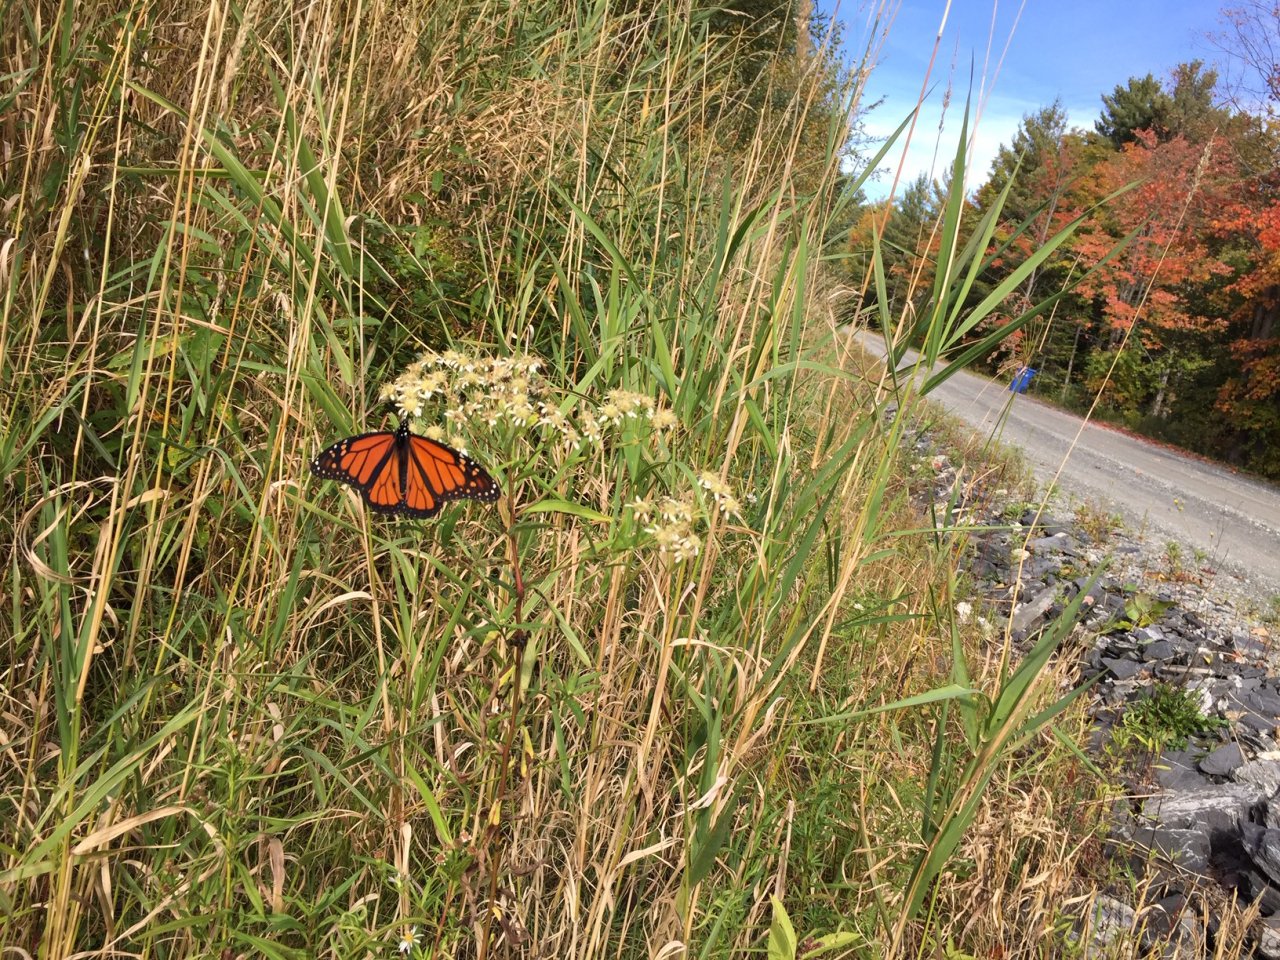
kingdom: Animalia
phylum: Arthropoda
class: Insecta
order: Lepidoptera
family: Nymphalidae
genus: Danaus
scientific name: Danaus plexippus
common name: Monarch
